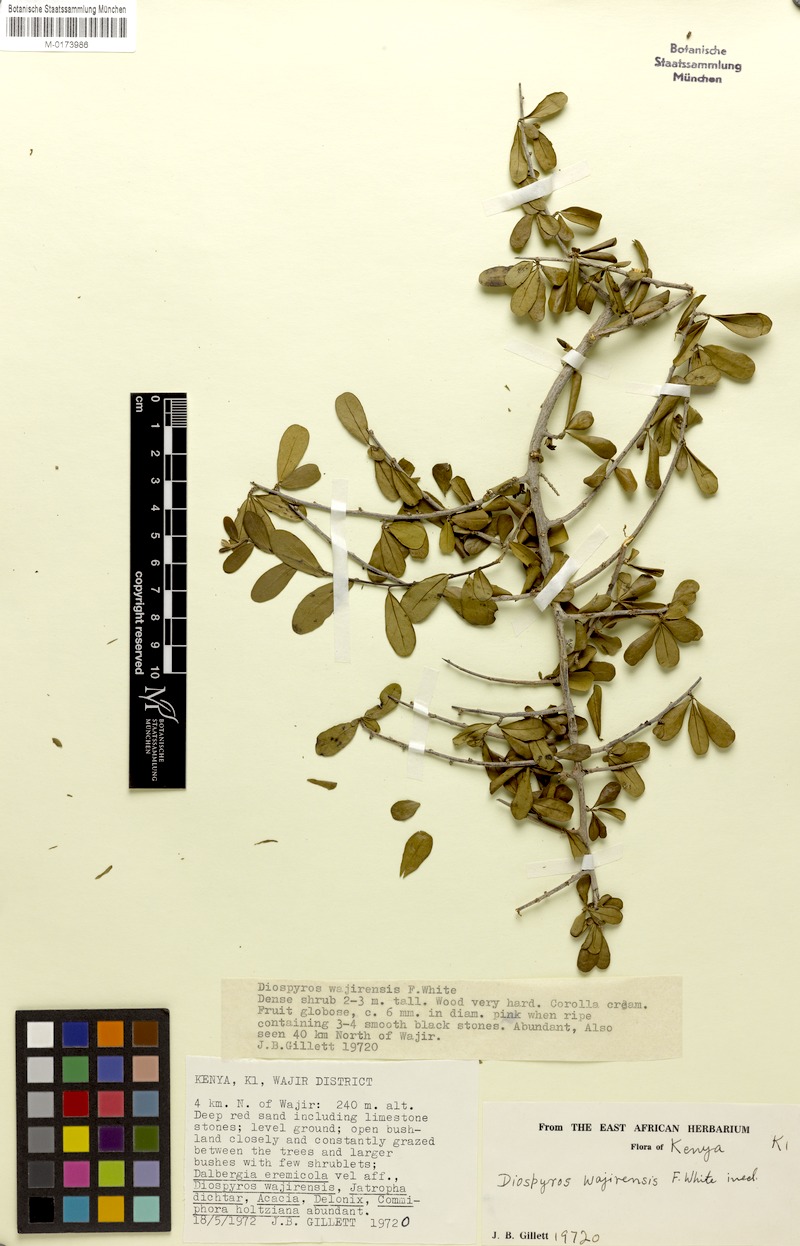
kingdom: Plantae
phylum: Tracheophyta
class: Magnoliopsida
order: Ericales
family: Ebenaceae
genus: Diospyros
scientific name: Diospyros wajirensis
